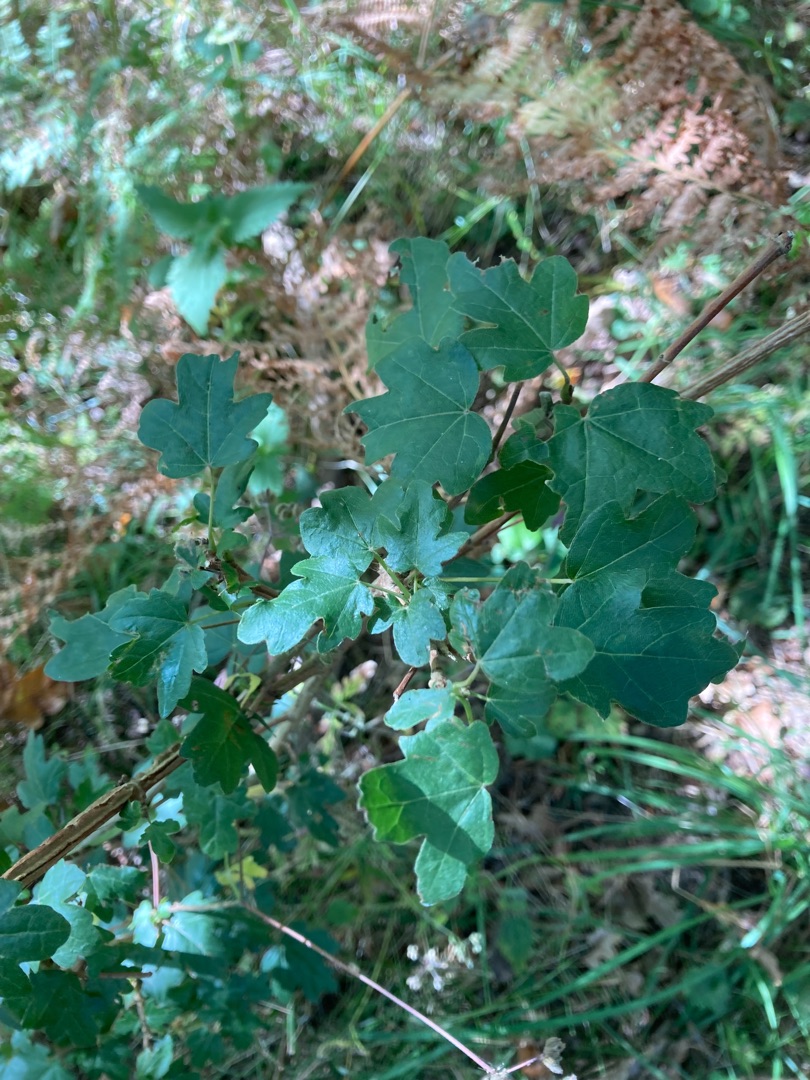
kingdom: Plantae
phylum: Tracheophyta
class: Magnoliopsida
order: Sapindales
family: Sapindaceae
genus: Acer
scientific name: Acer campestre
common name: Navr
